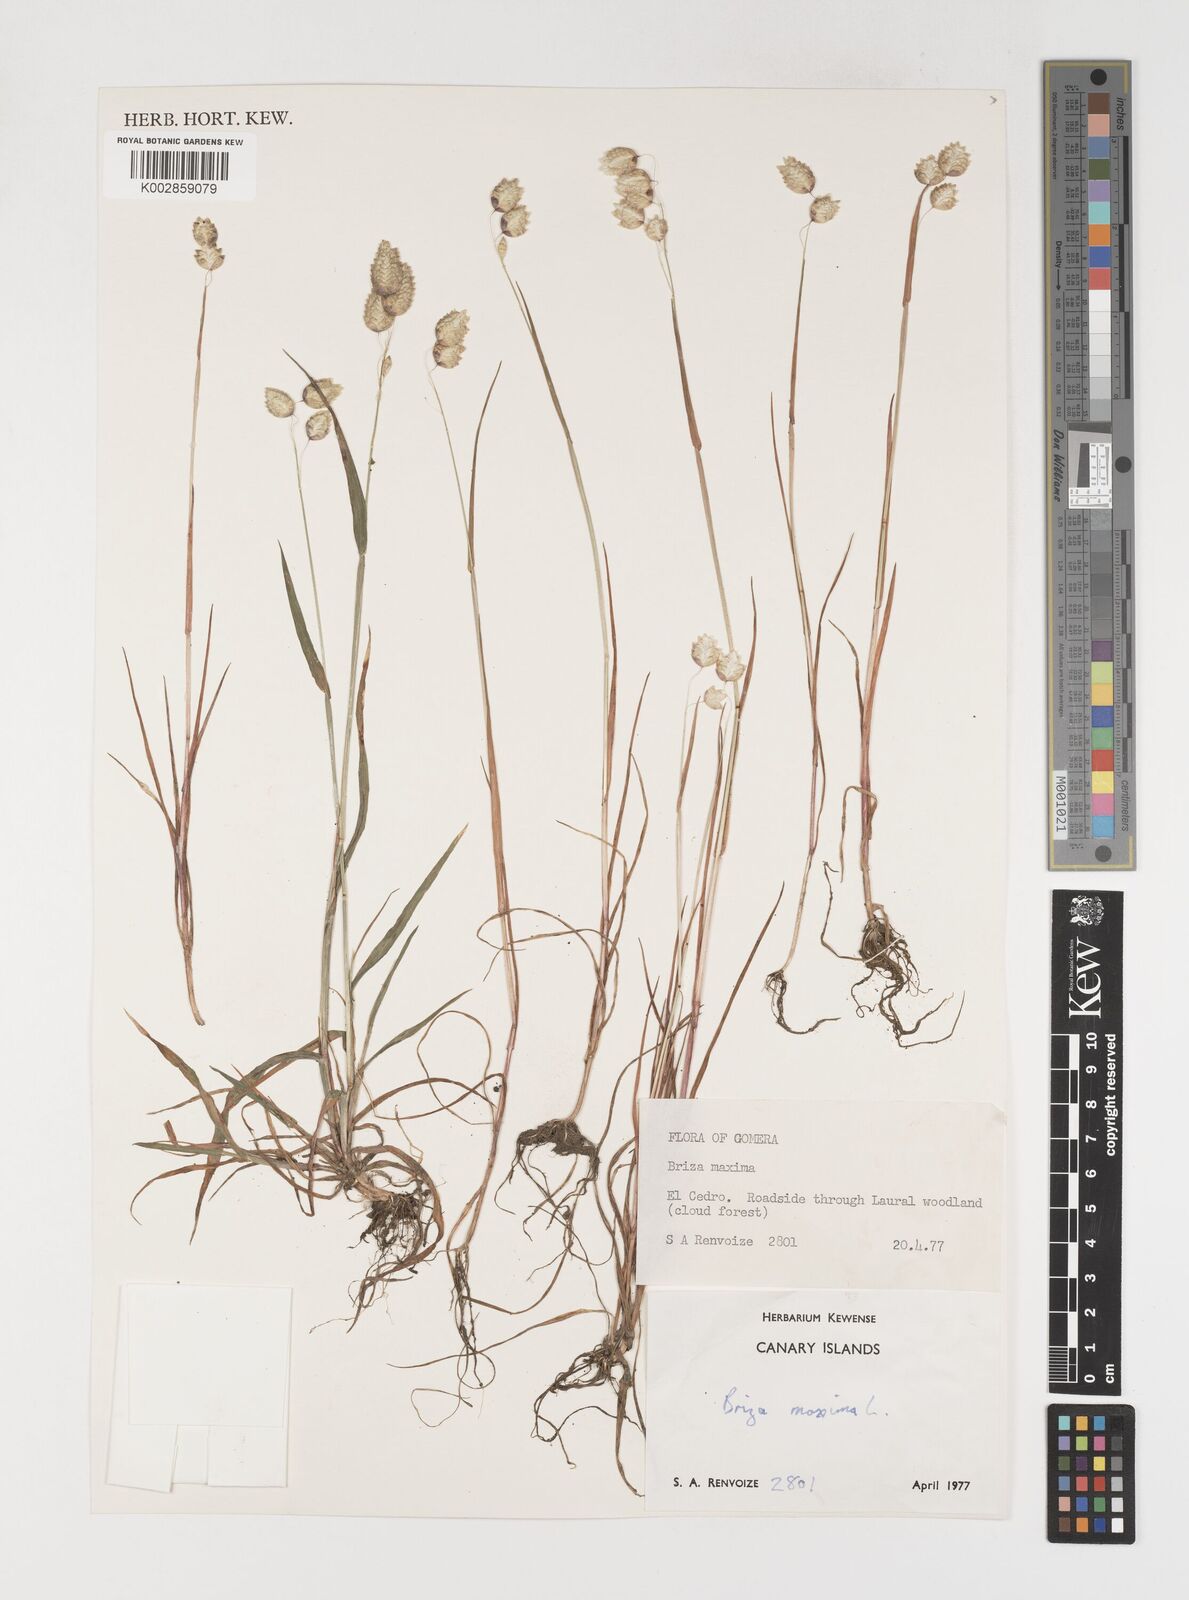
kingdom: Plantae
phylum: Tracheophyta
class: Liliopsida
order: Poales
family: Poaceae
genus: Briza
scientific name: Briza maxima
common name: Big quakinggrass
